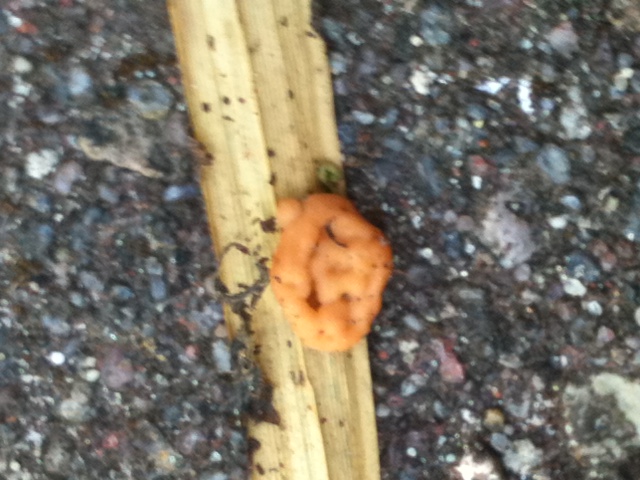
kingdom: Fungi
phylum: Basidiomycota
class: Tremellomycetes
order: Tremellales
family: Rhynchogastremaceae
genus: Tetragoniomyces
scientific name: Tetragoniomyces uliginosus
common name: sklerotie-snyltehjerne
